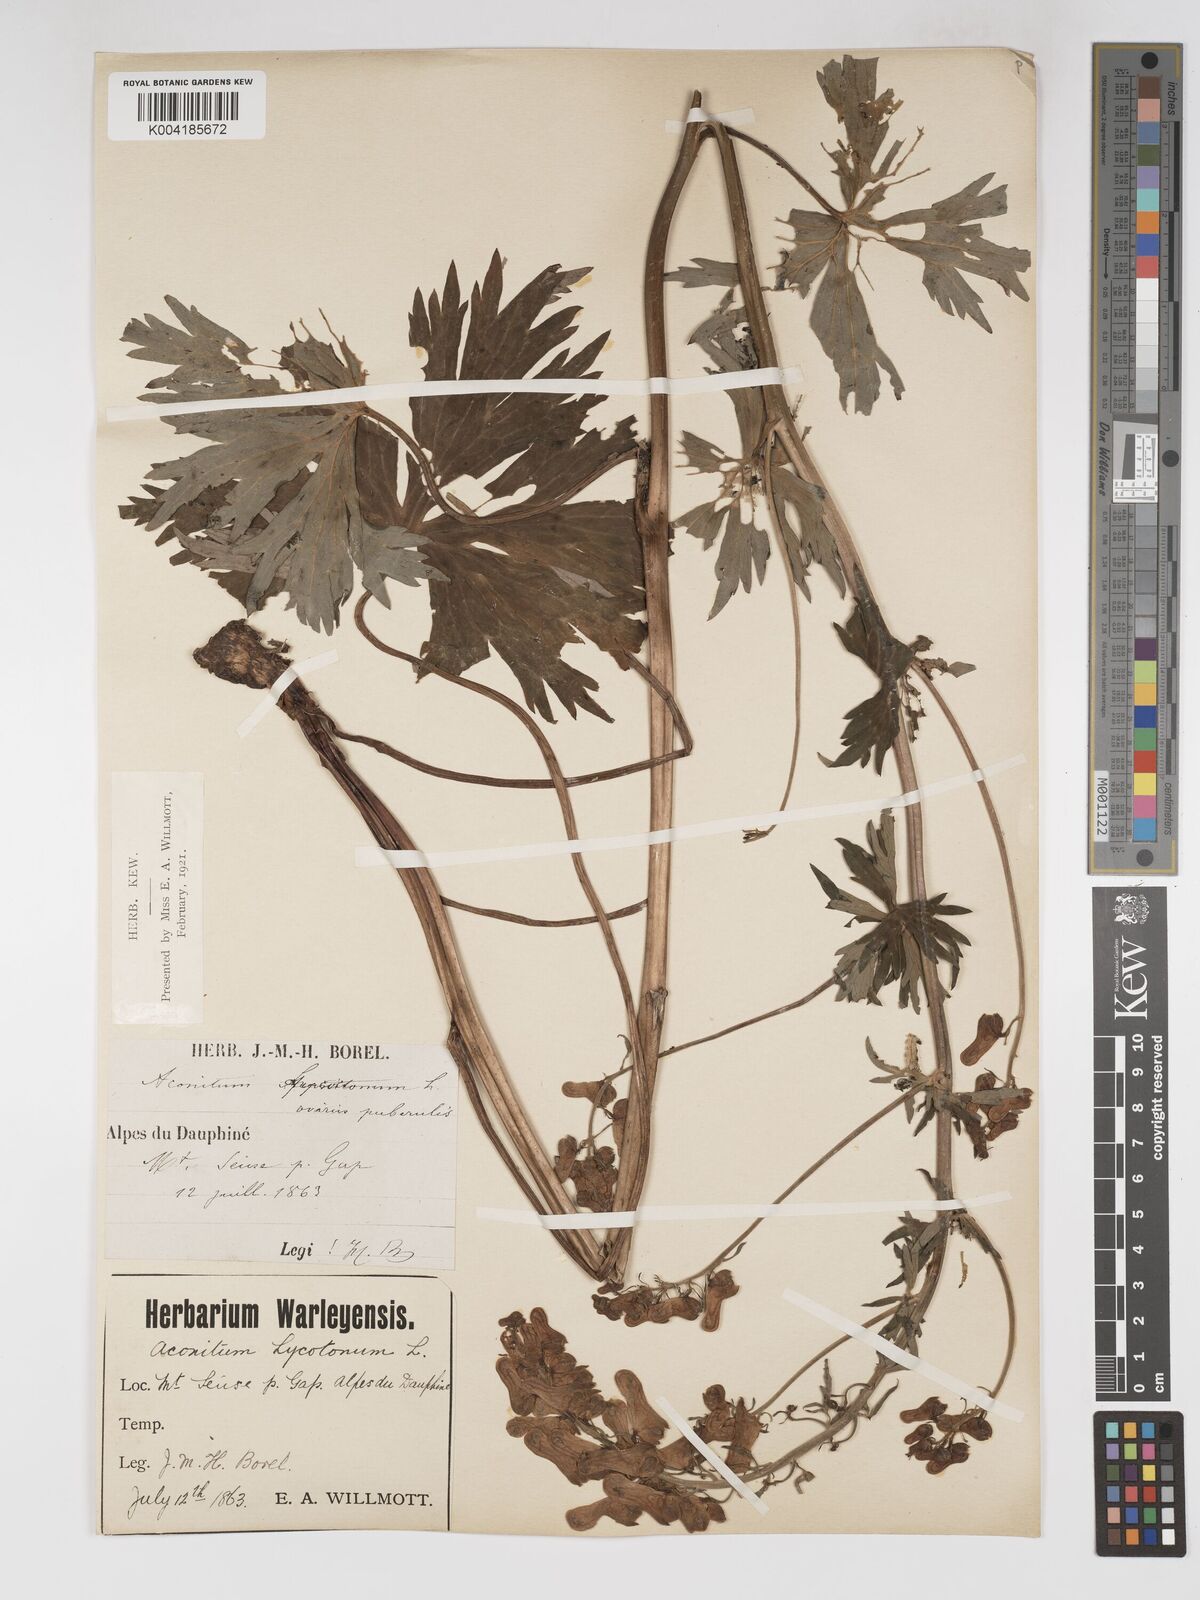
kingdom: Plantae
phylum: Tracheophyta
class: Magnoliopsida
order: Ranunculales
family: Ranunculaceae
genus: Aconitum
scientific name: Aconitum lycoctonum
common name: Wolf's-bane
